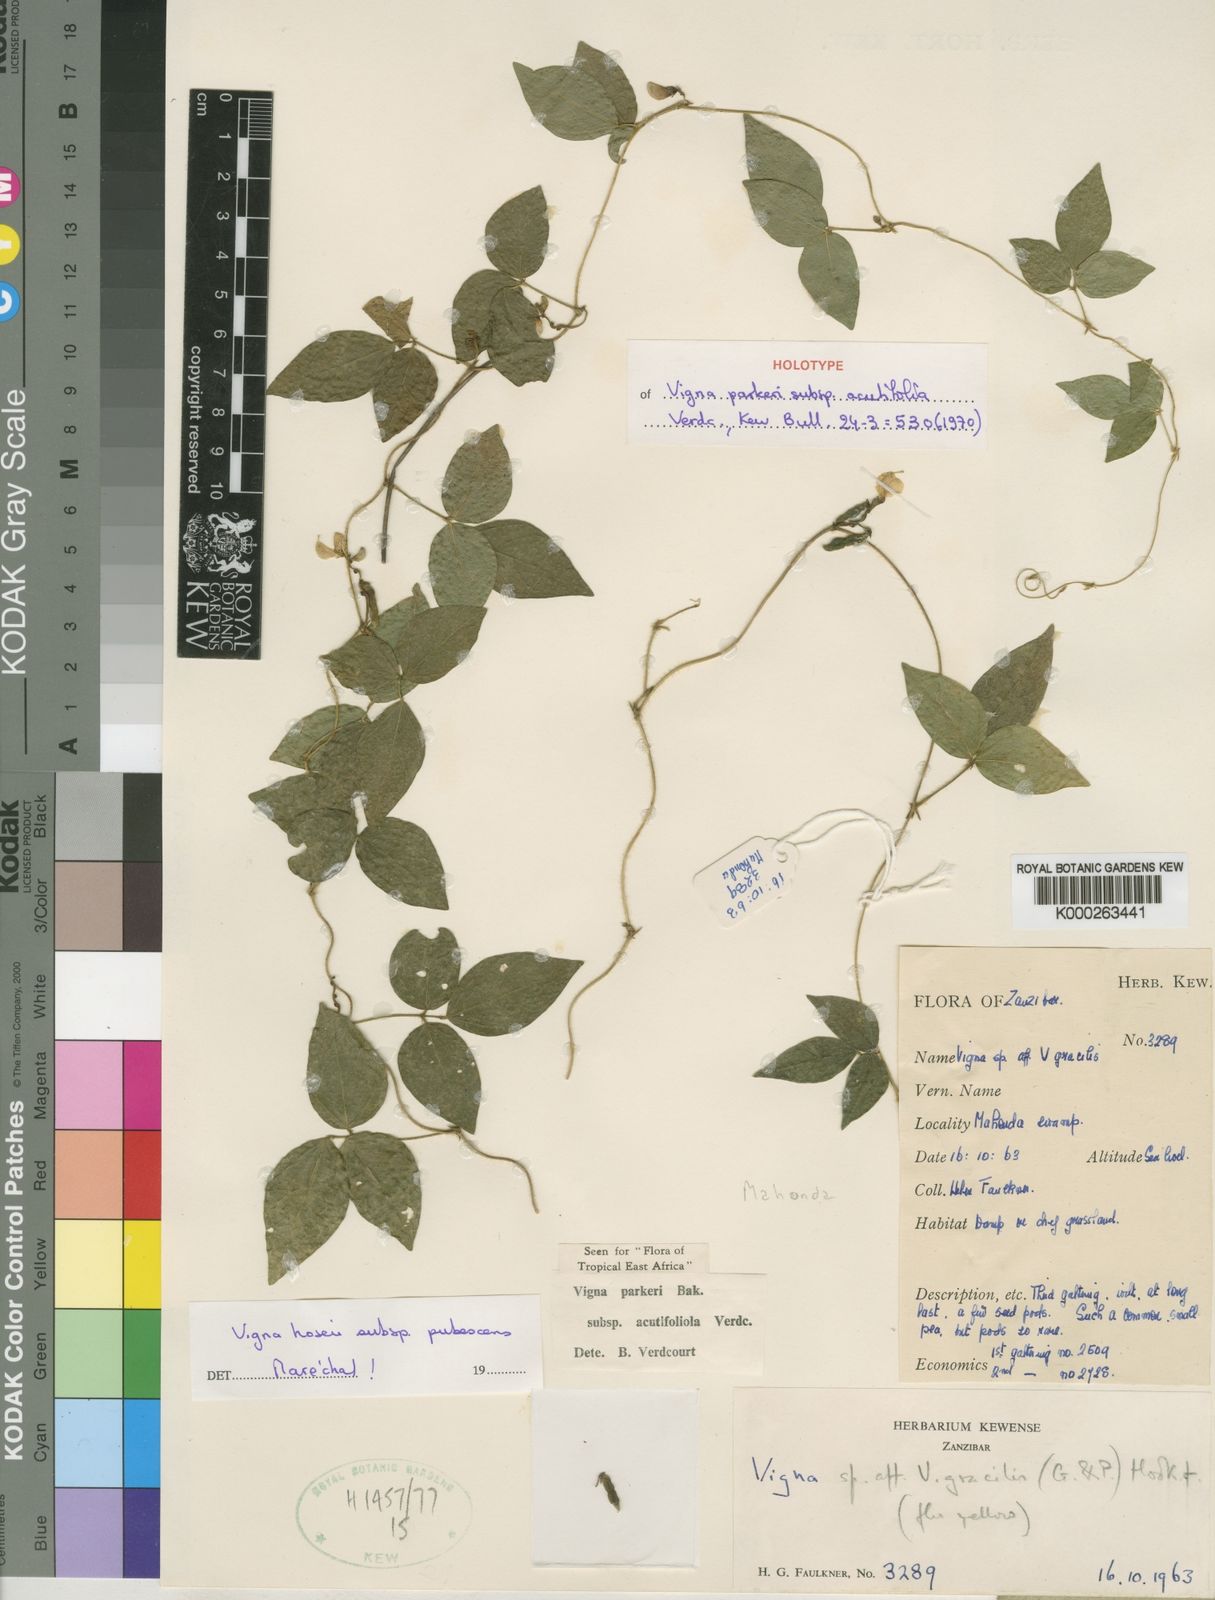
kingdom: Plantae
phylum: Tracheophyta
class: Magnoliopsida
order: Fabales
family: Fabaceae
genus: Vigna
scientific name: Vigna parkeri
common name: Creeping vigna
